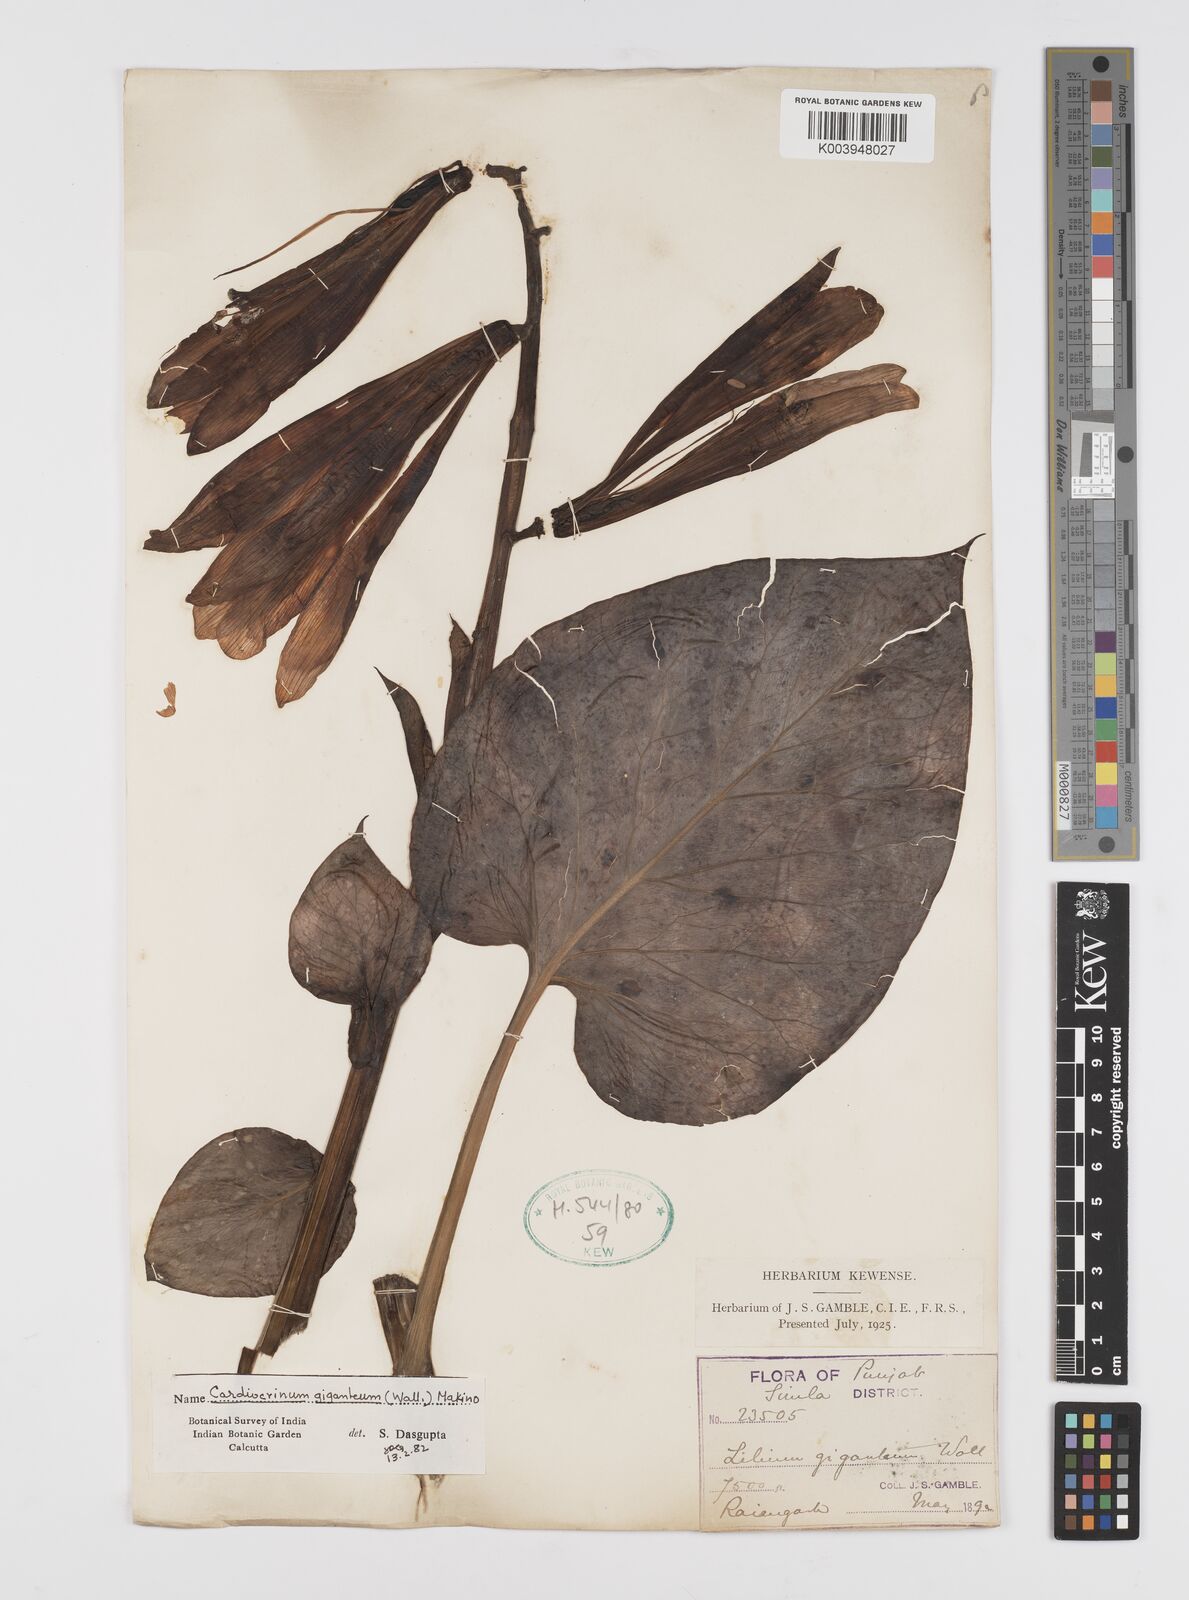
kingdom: Plantae
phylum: Tracheophyta
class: Liliopsida
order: Liliales
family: Liliaceae
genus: Cardiocrinum
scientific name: Cardiocrinum giganteum
